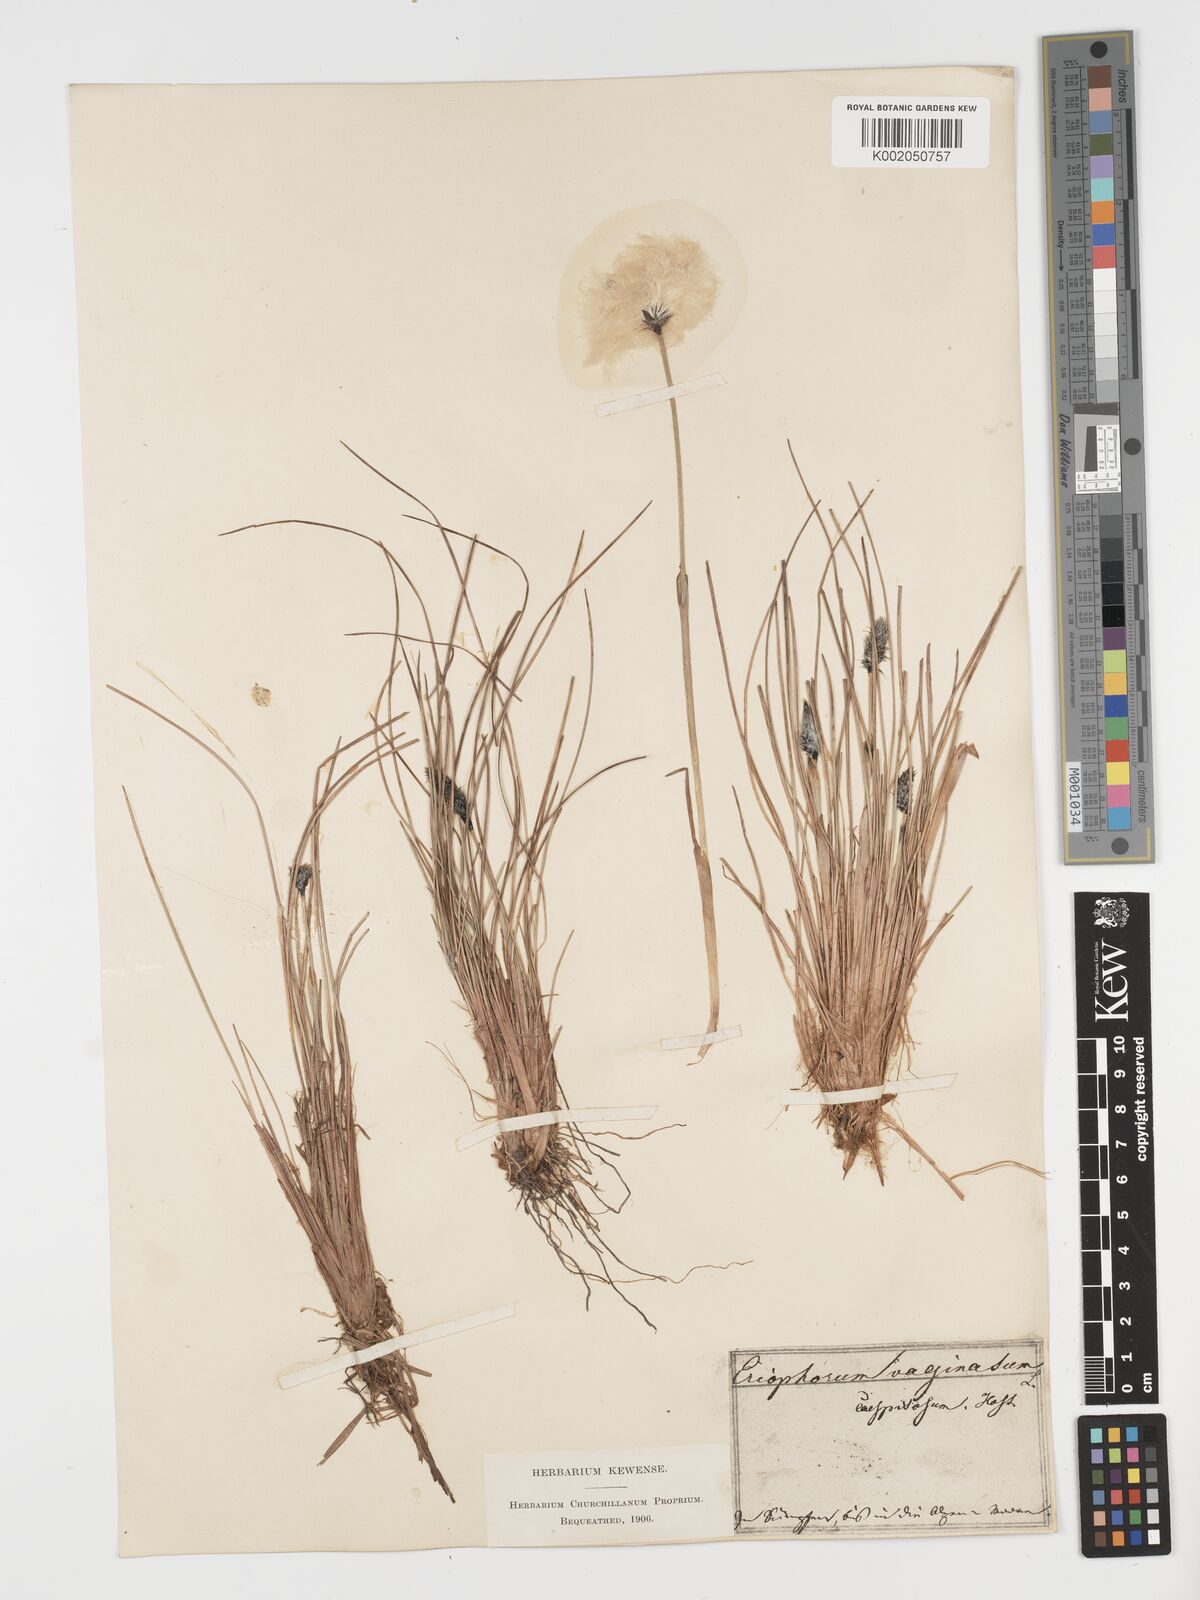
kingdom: Plantae
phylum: Tracheophyta
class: Liliopsida
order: Poales
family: Cyperaceae
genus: Eriophorum
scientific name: Eriophorum vaginatum
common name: Hare's-tail cottongrass
